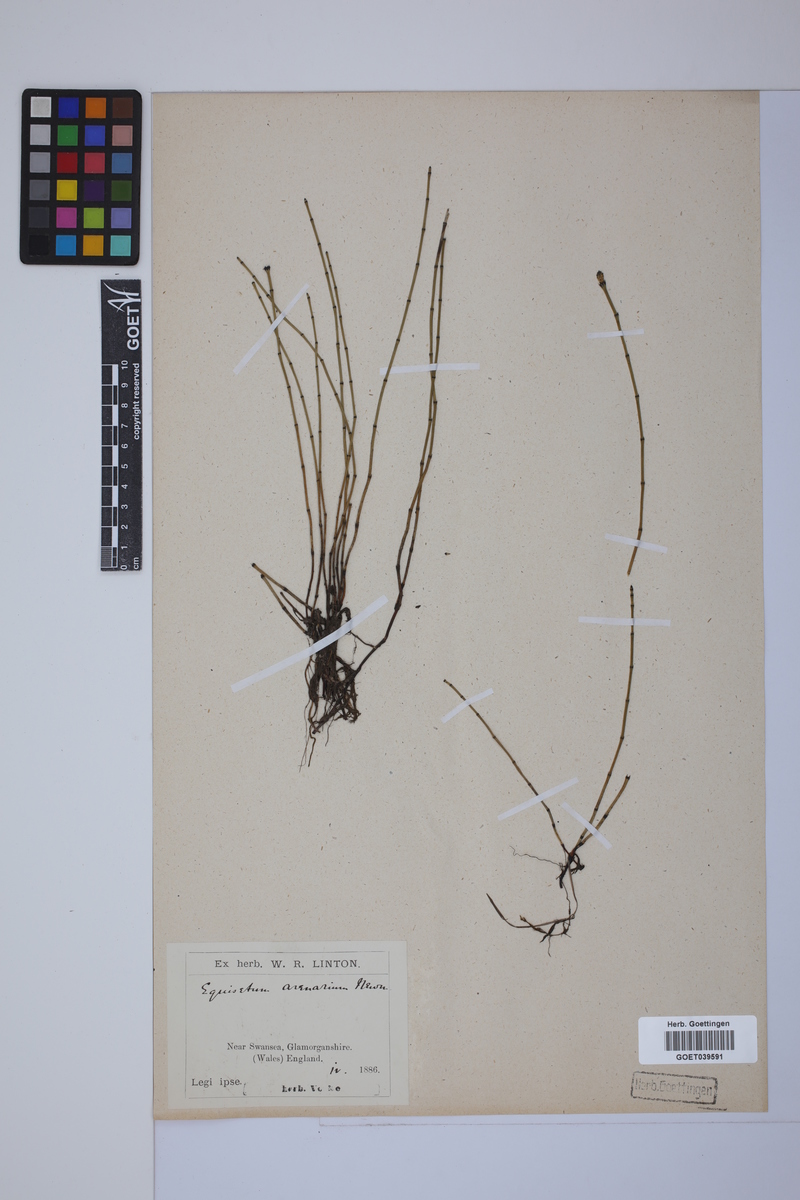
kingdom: Plantae
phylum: Tracheophyta
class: Polypodiopsida
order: Equisetales
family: Equisetaceae
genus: Equisetum
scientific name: Equisetum variegatum
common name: Variegated horsetail
